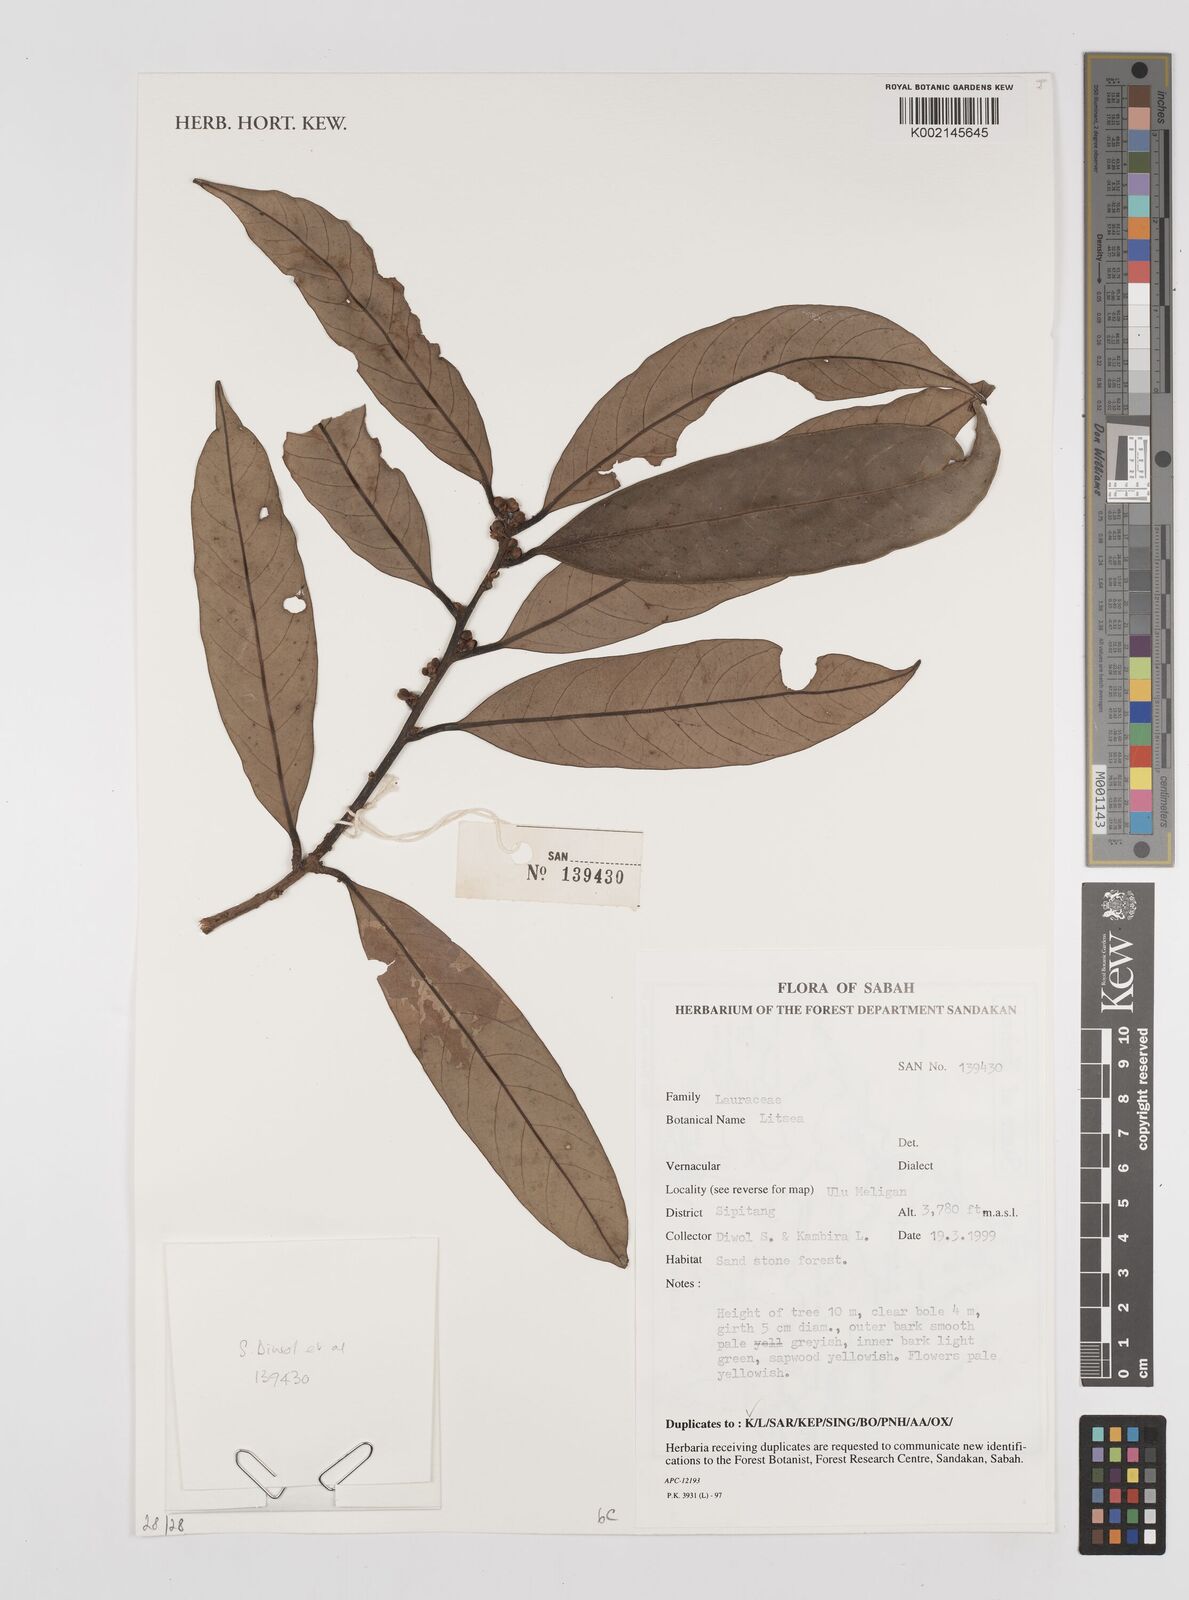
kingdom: Plantae
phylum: Tracheophyta
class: Magnoliopsida
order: Laurales
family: Lauraceae
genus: Litsea
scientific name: Litsea
